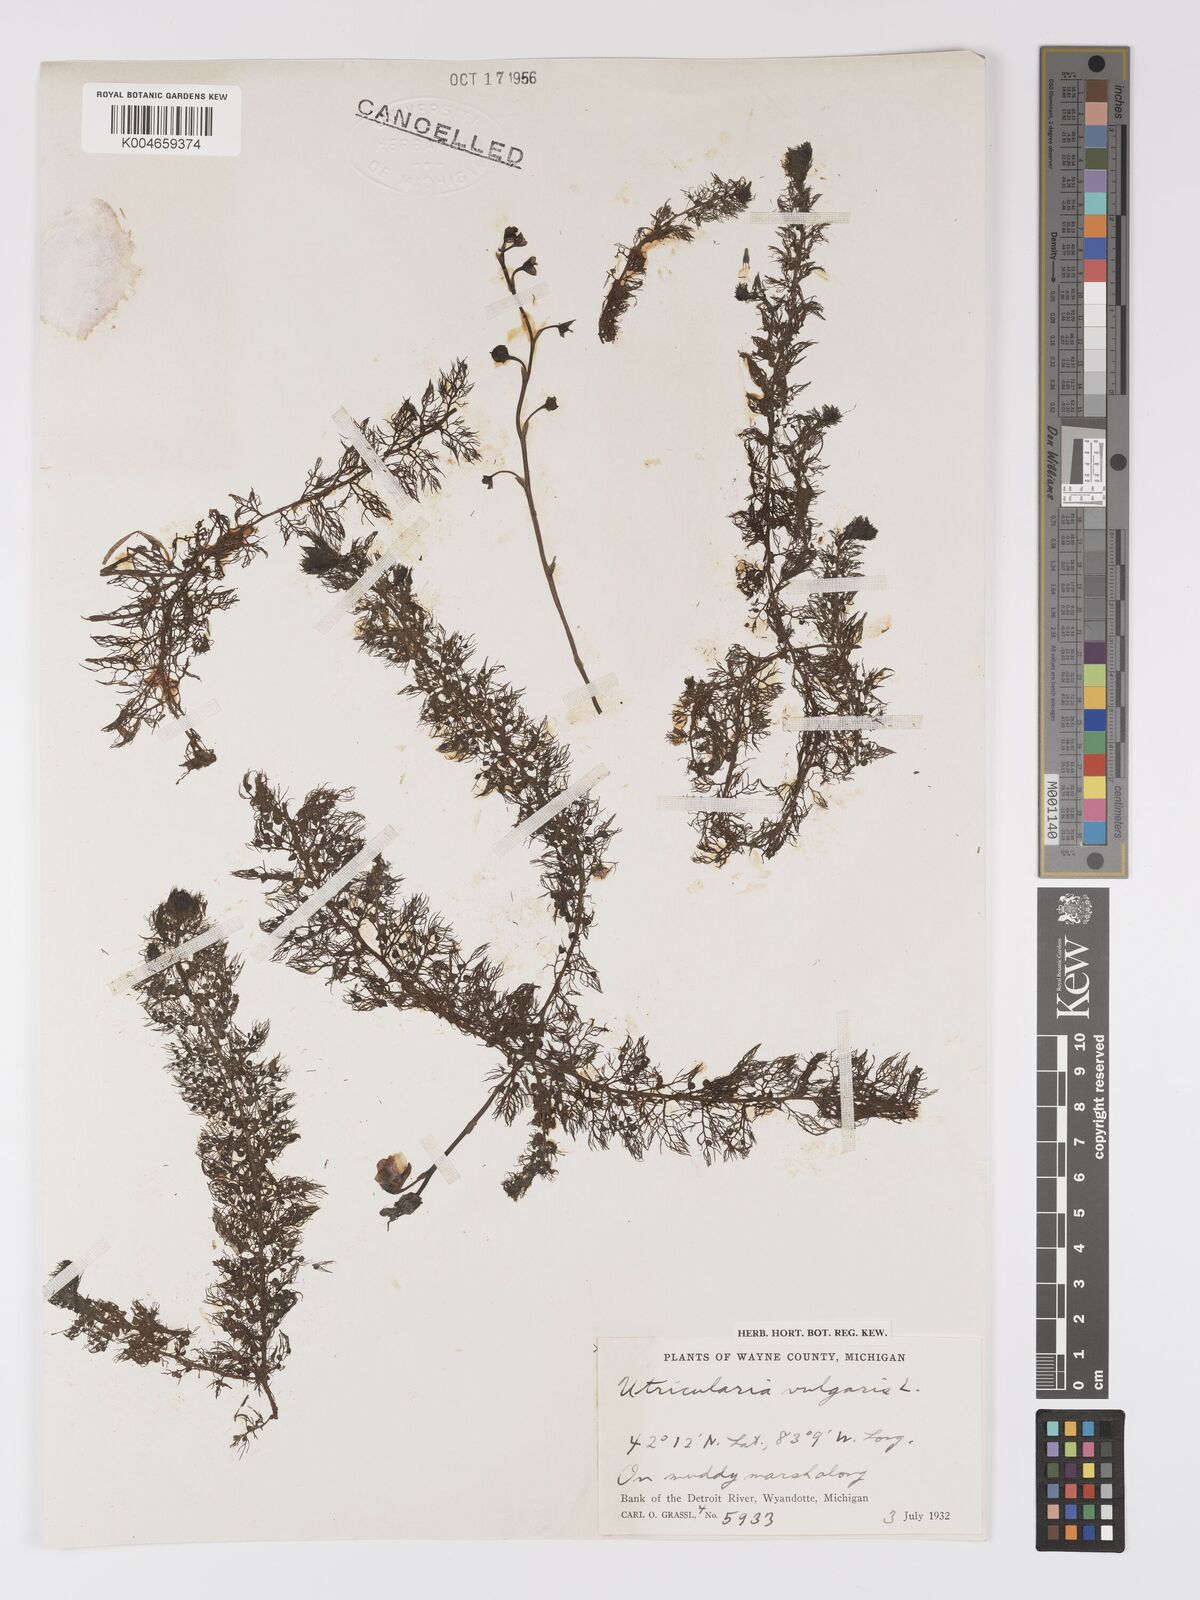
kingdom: Plantae
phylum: Tracheophyta
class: Magnoliopsida
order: Lamiales
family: Lentibulariaceae
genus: Utricularia
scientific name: Utricularia macrorhiza
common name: Common bladderwort
